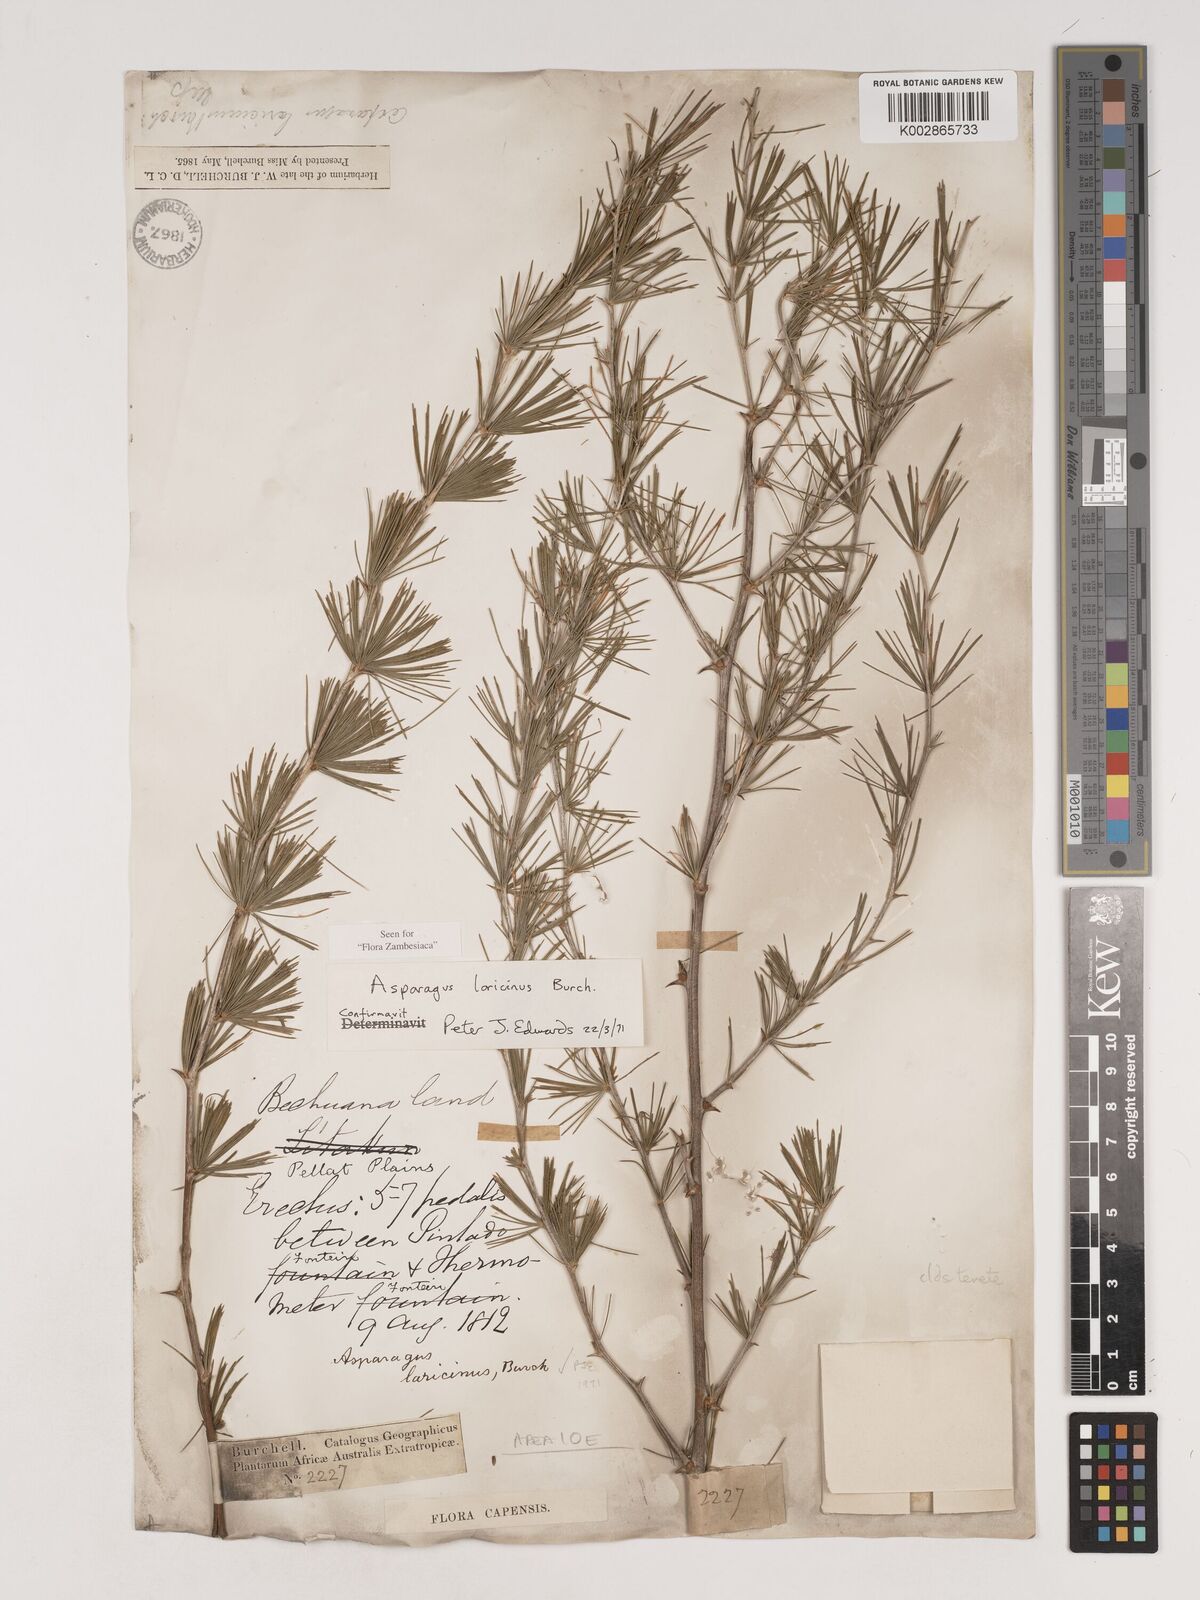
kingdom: Plantae
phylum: Tracheophyta
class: Liliopsida
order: Asparagales
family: Asparagaceae
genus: Asparagus
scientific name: Asparagus laricinus
